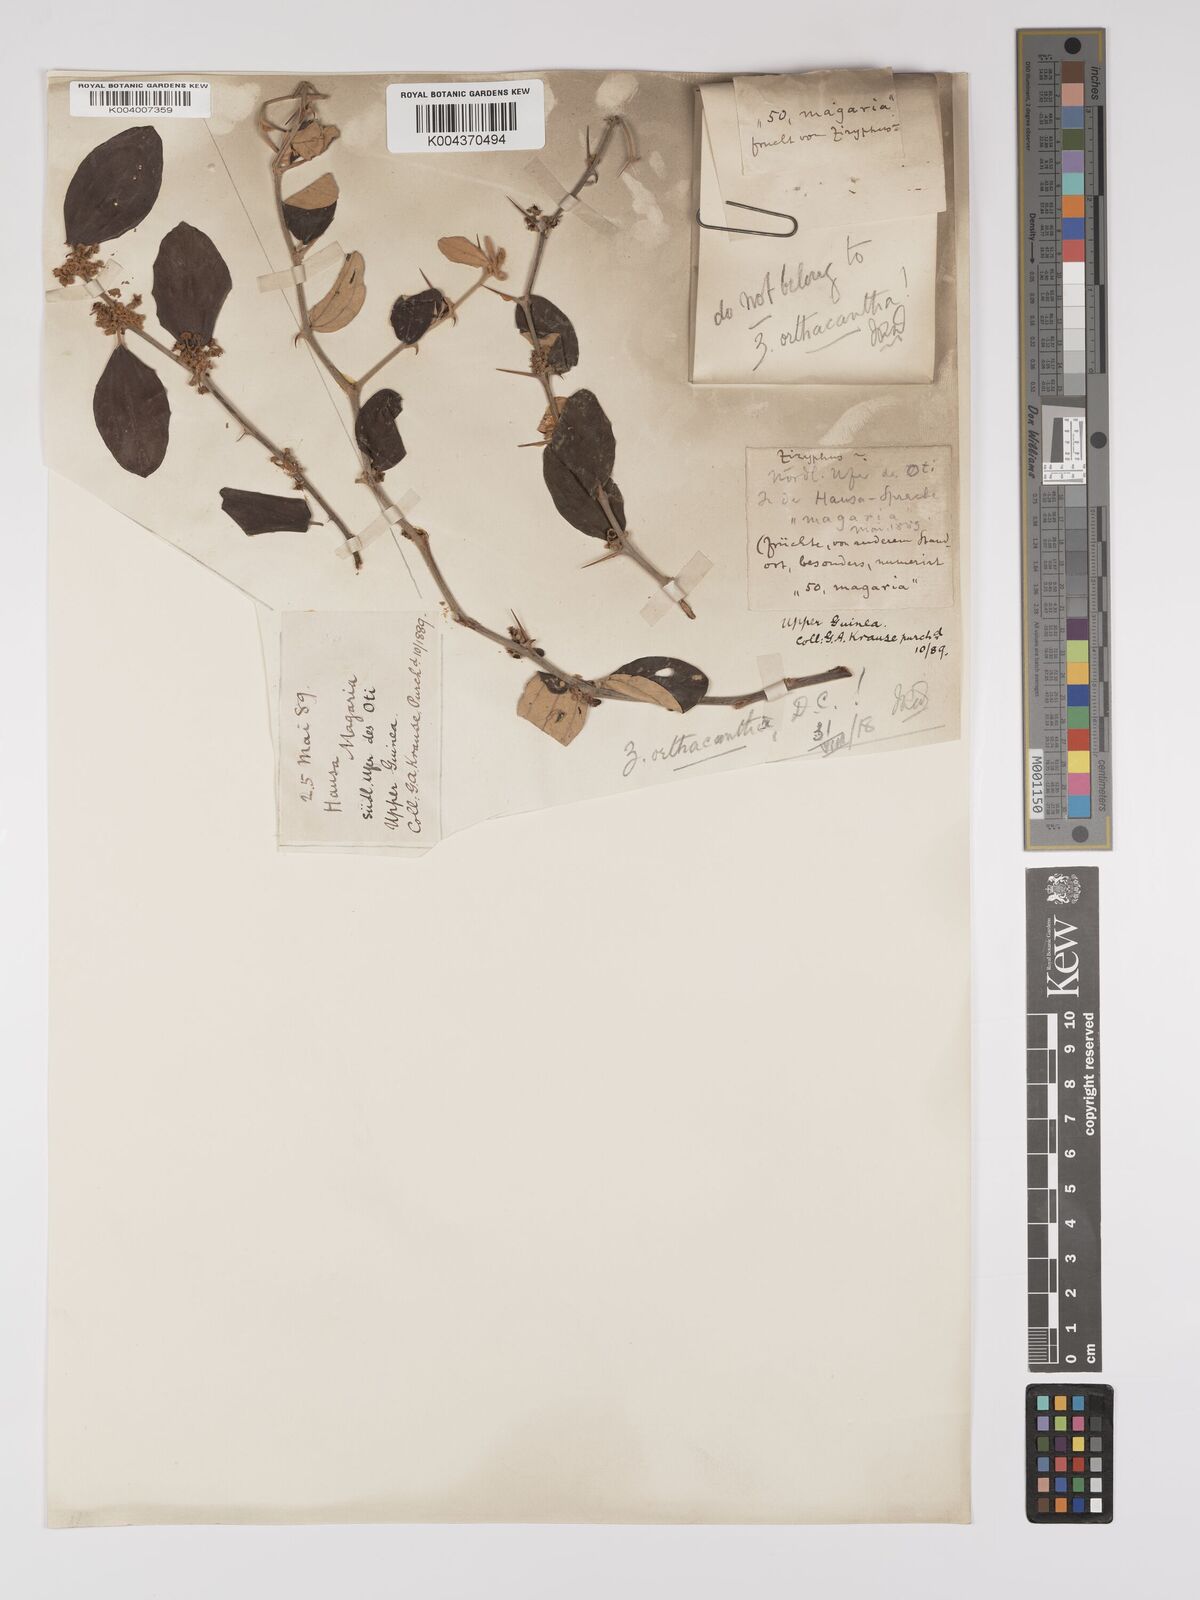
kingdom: Plantae
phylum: Tracheophyta
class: Magnoliopsida
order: Rosales
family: Rhamnaceae
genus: Ziziphus
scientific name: Ziziphus mauritiana
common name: Indian jujube
